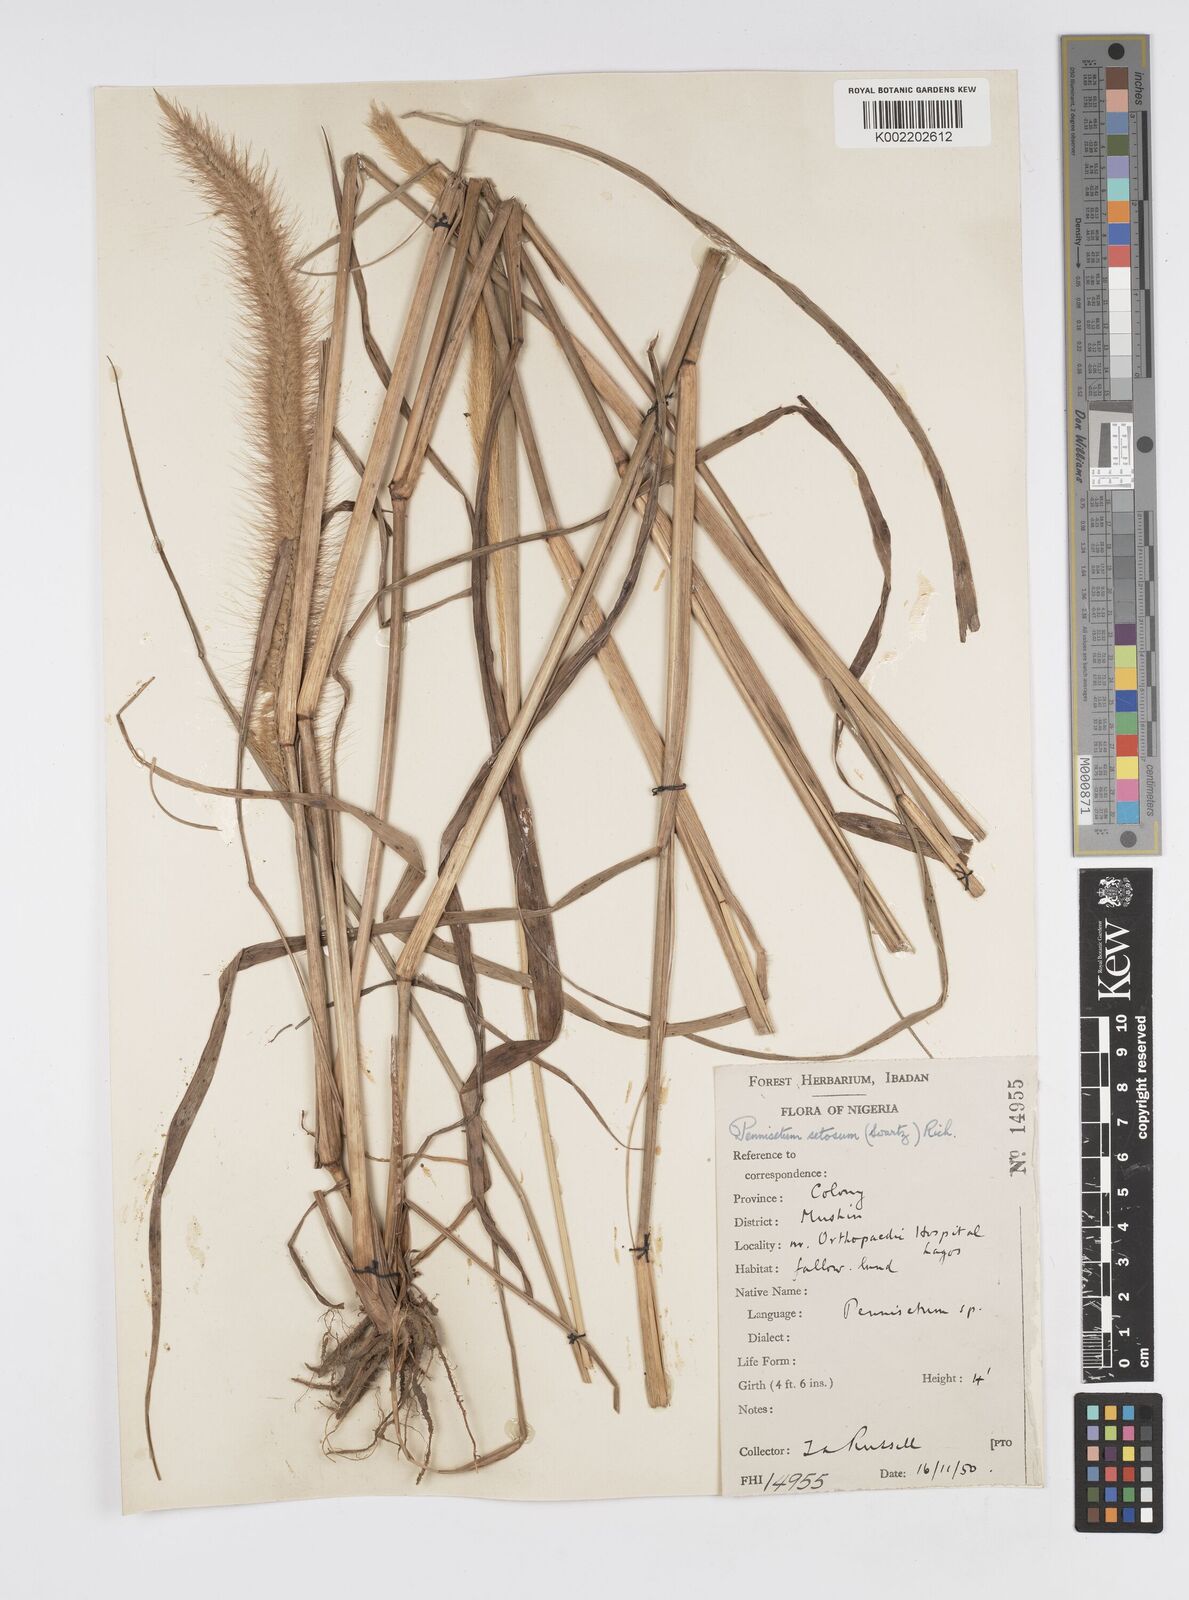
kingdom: Plantae
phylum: Tracheophyta
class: Liliopsida
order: Poales
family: Poaceae
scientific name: Poaceae
